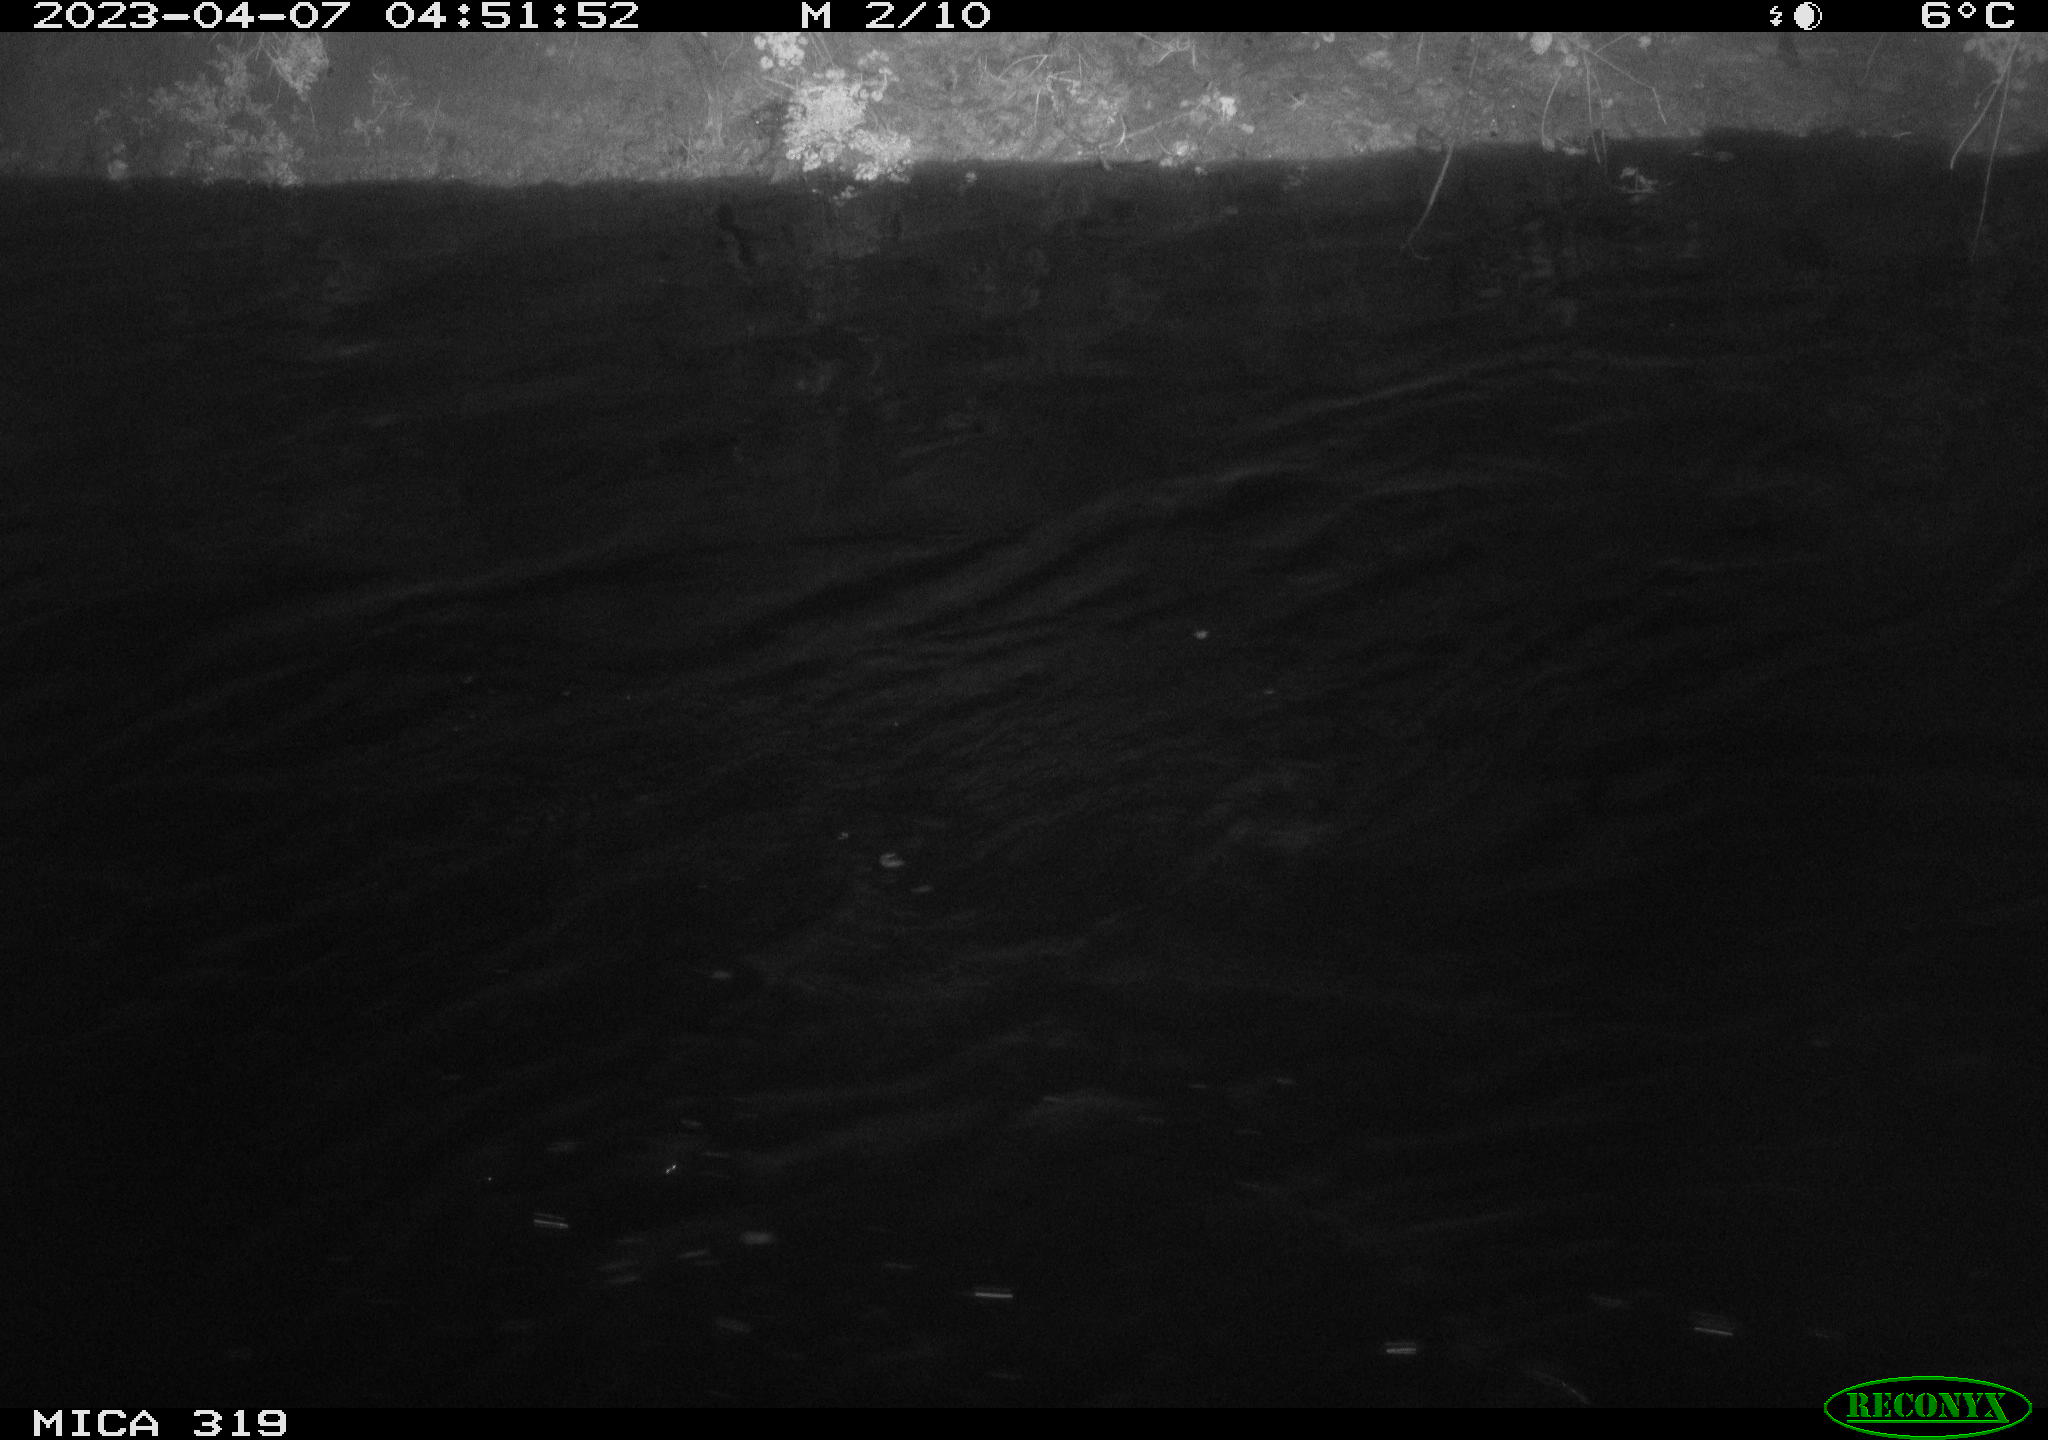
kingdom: Animalia
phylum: Chordata
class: Aves
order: Anseriformes
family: Anatidae
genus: Anas
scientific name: Anas
